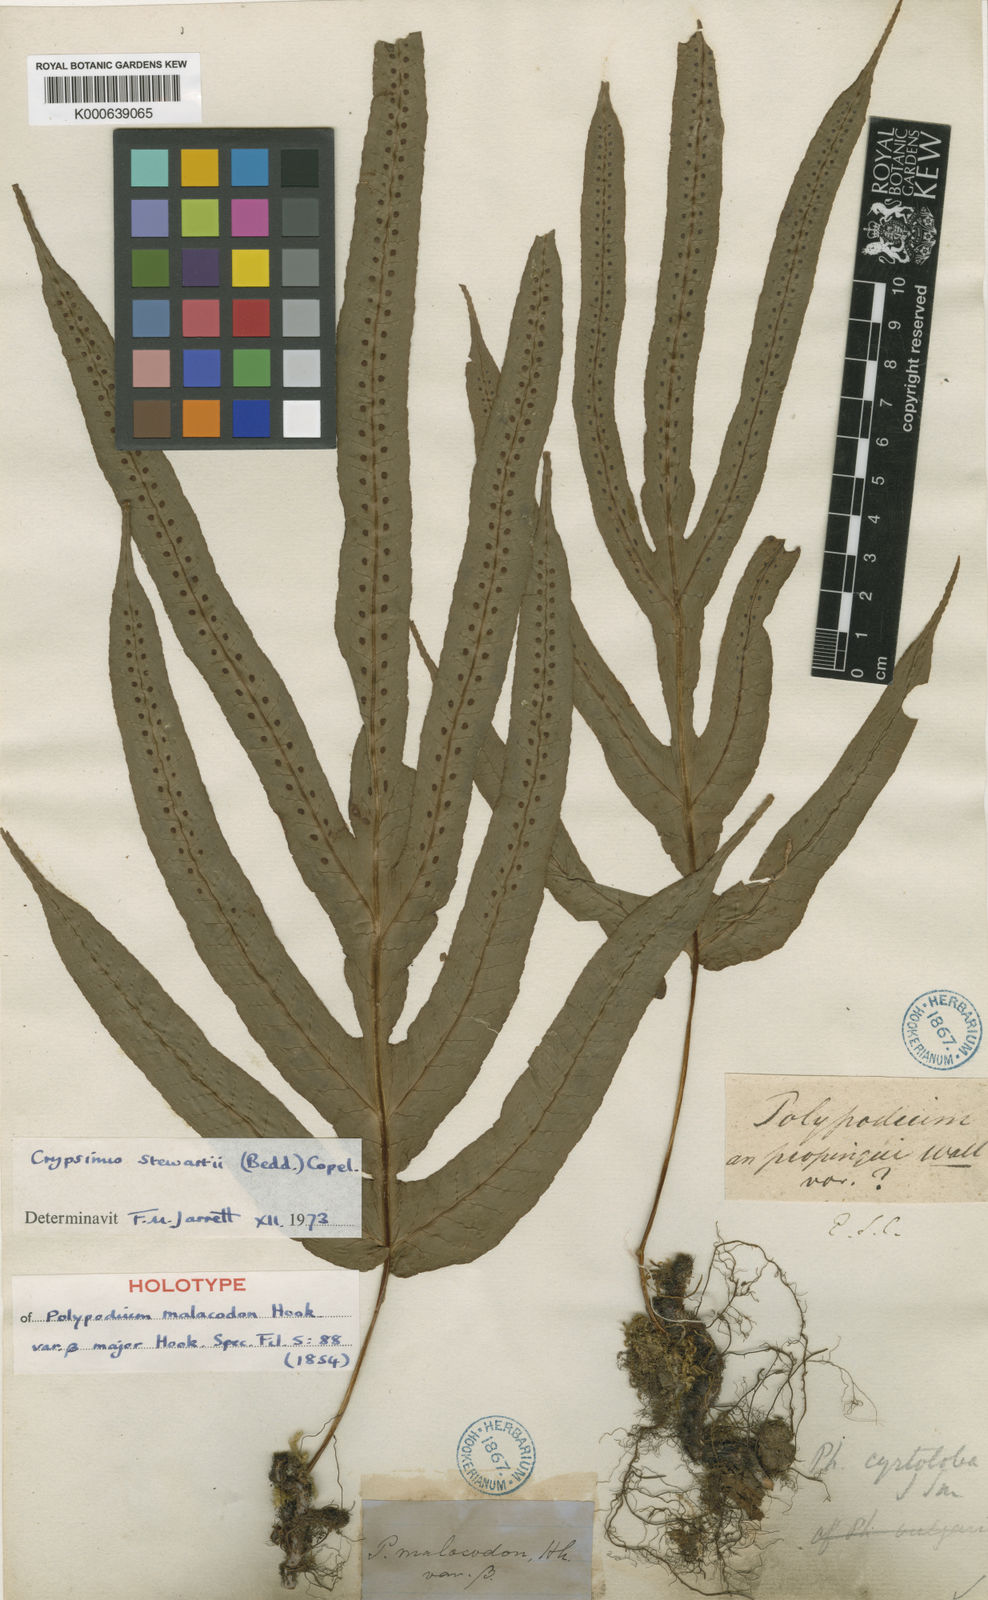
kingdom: Plantae
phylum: Tracheophyta
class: Polypodiopsida
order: Polypodiales
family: Polypodiaceae
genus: Selliguea
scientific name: Selliguea
